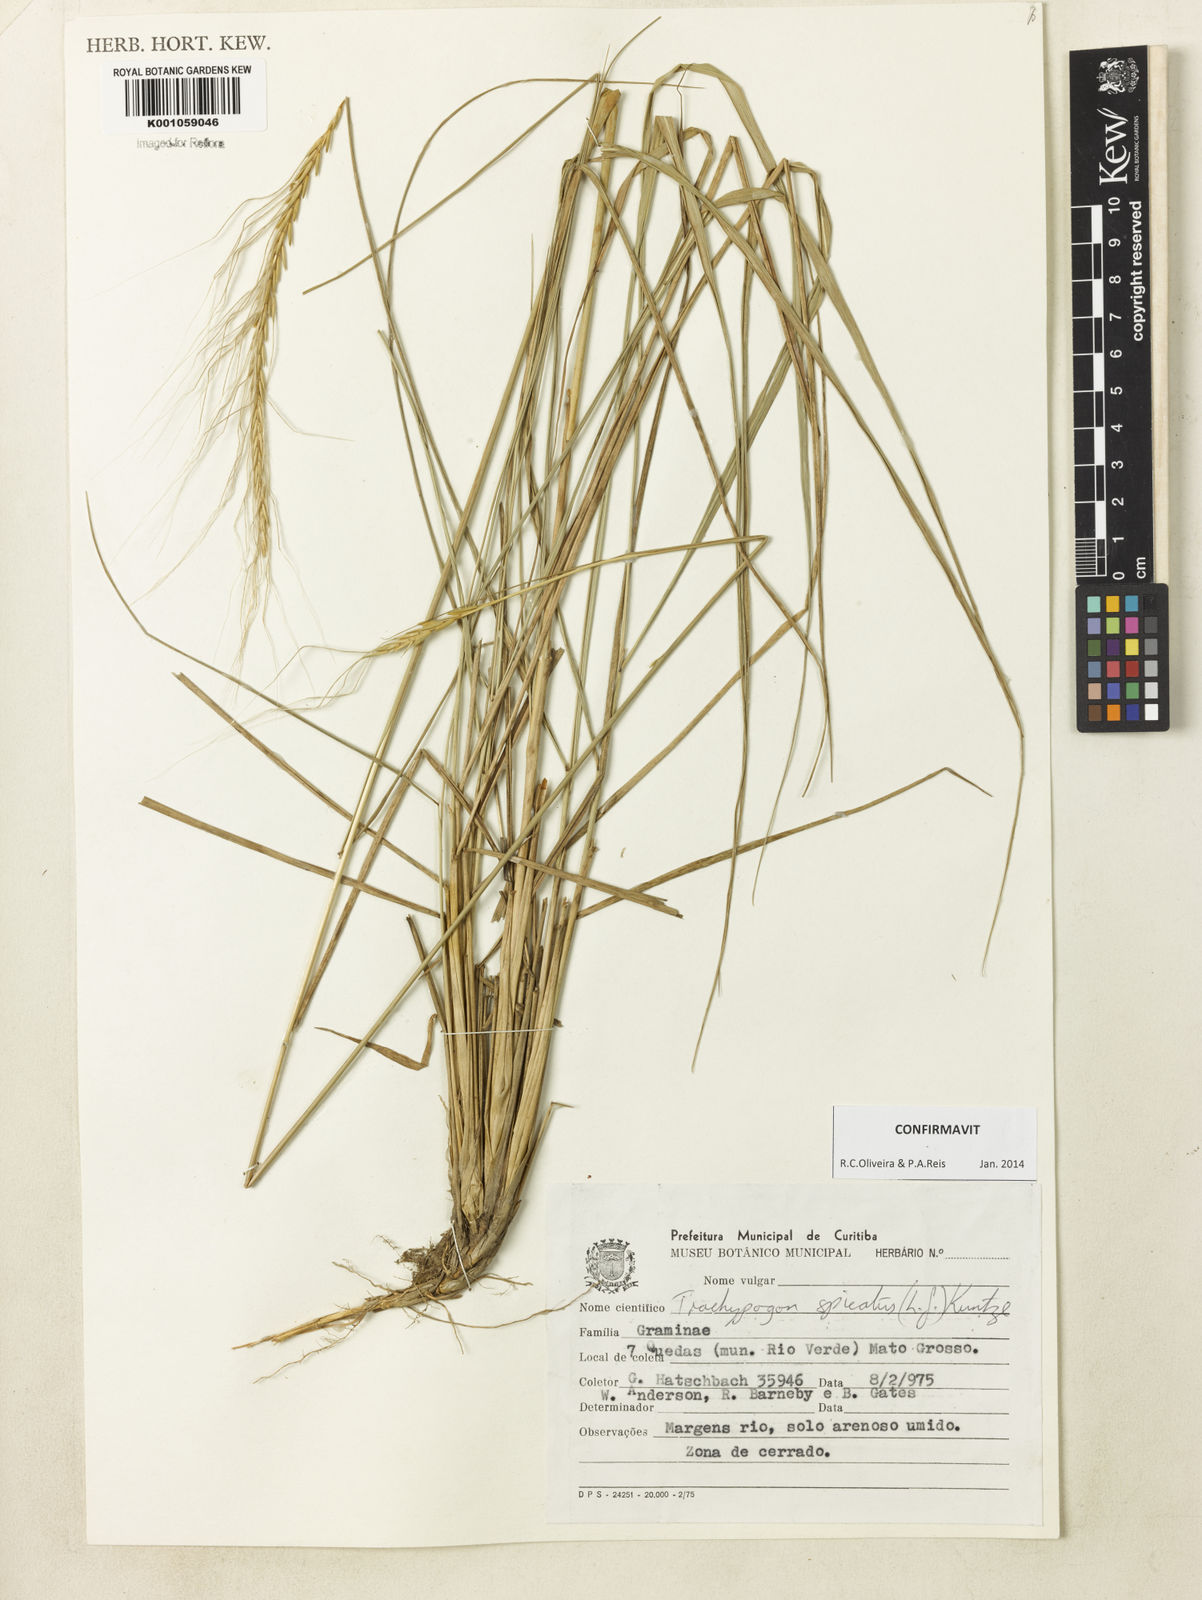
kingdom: Plantae
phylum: Tracheophyta
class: Liliopsida
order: Poales
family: Poaceae
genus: Trachypogon
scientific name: Trachypogon spicatus
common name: Crinkle-awn
